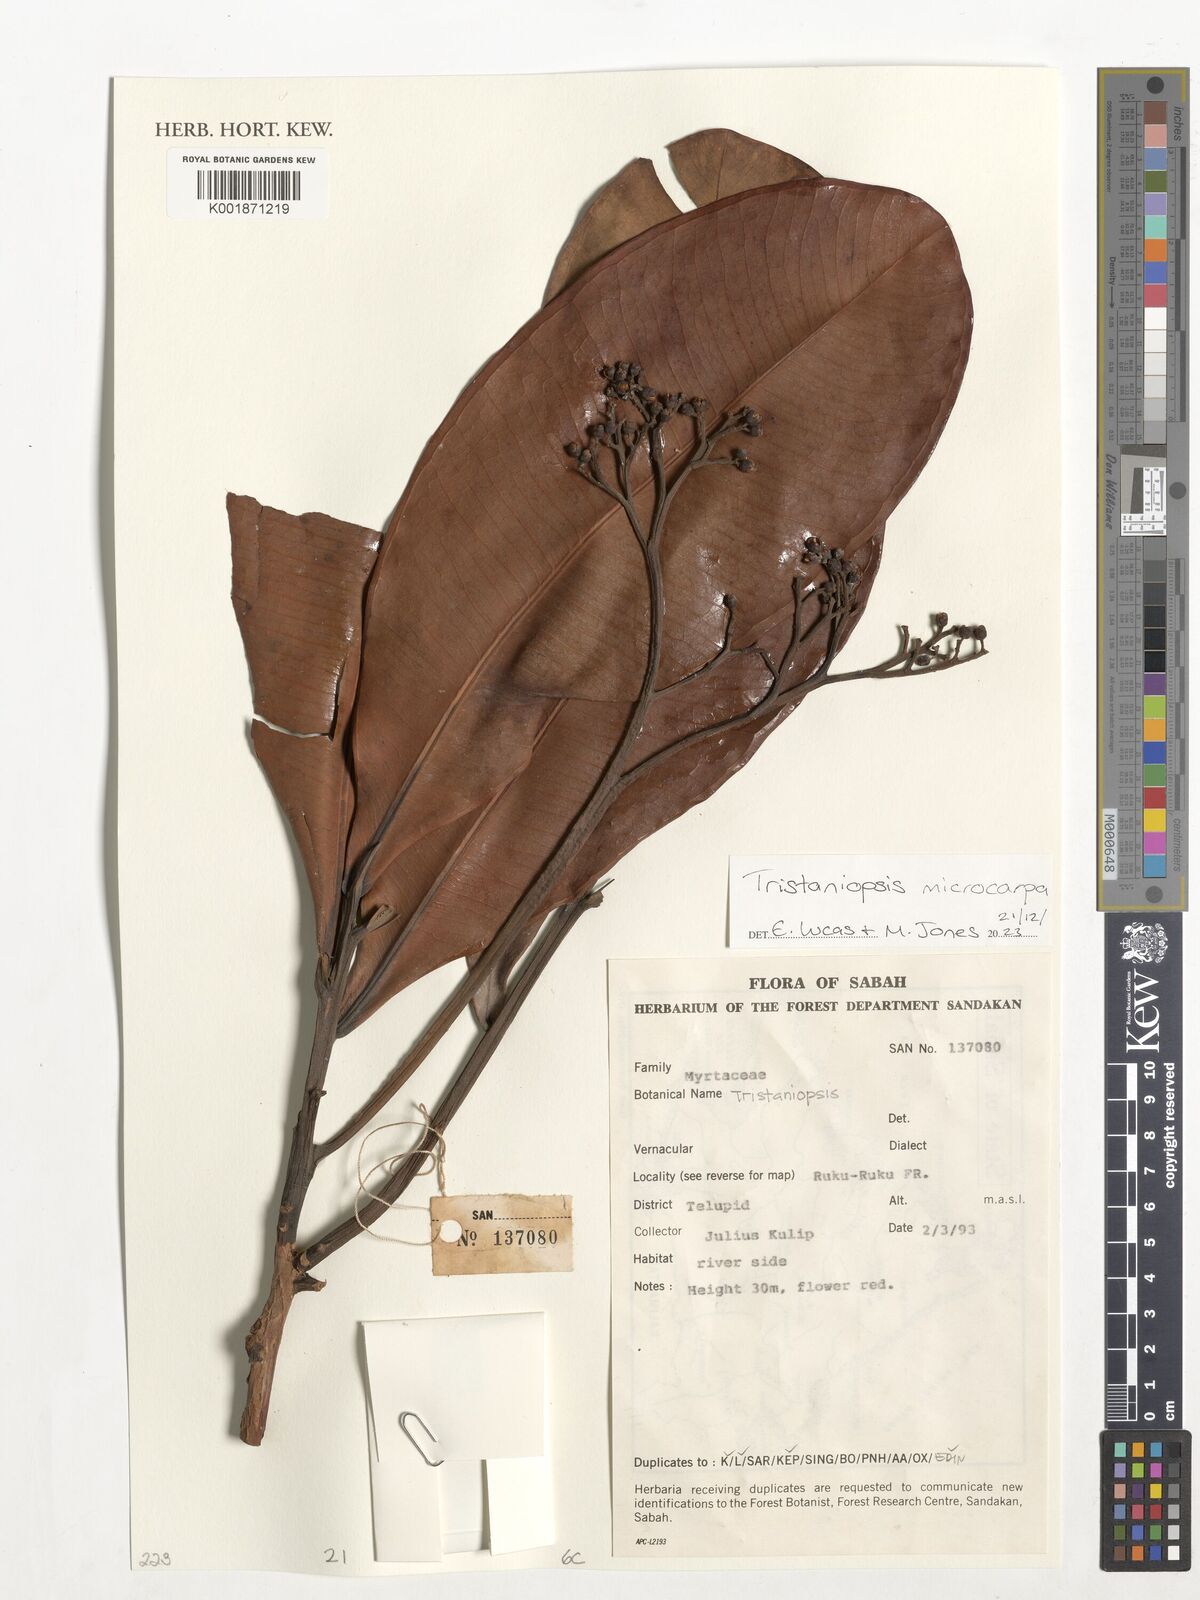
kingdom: Plantae
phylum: Tracheophyta
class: Magnoliopsida
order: Myrtales
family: Myrtaceae
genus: Tristaniopsis
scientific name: Tristaniopsis microcarpa
